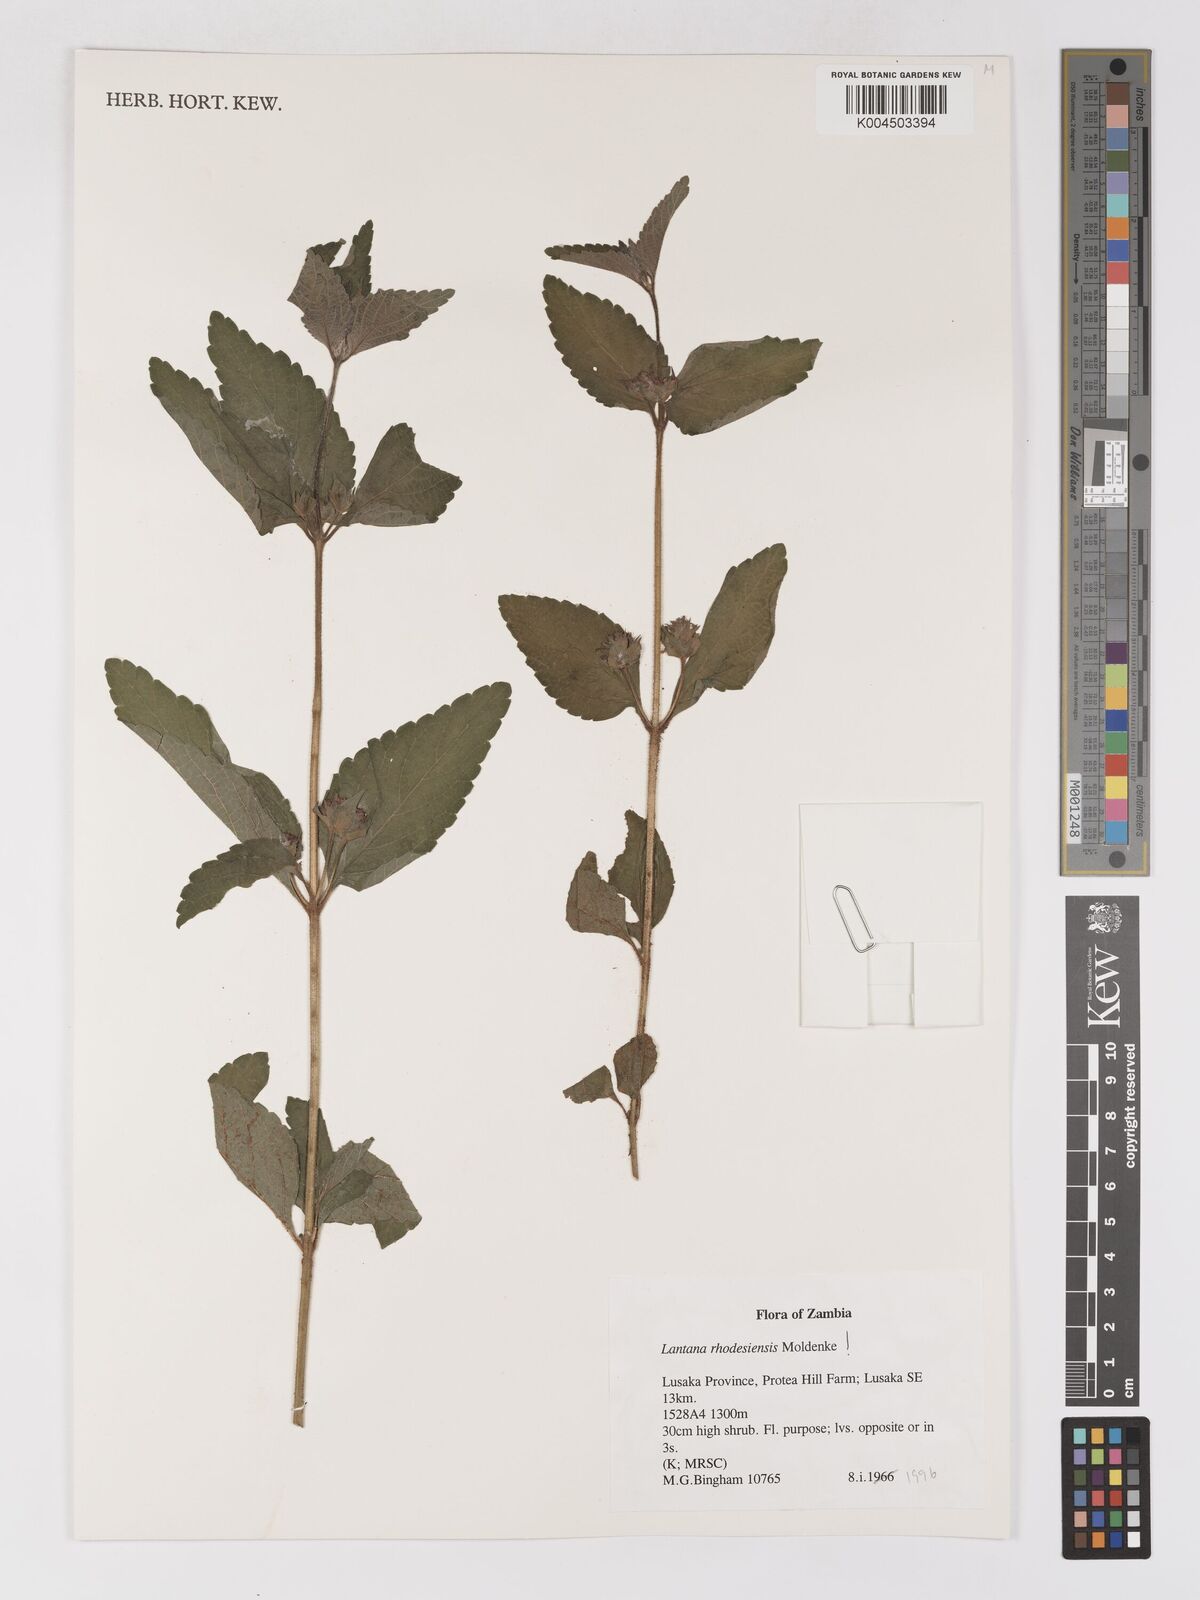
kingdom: Plantae
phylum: Tracheophyta
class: Magnoliopsida
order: Lamiales
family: Verbenaceae
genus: Lantana
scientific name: Lantana ukambensis
